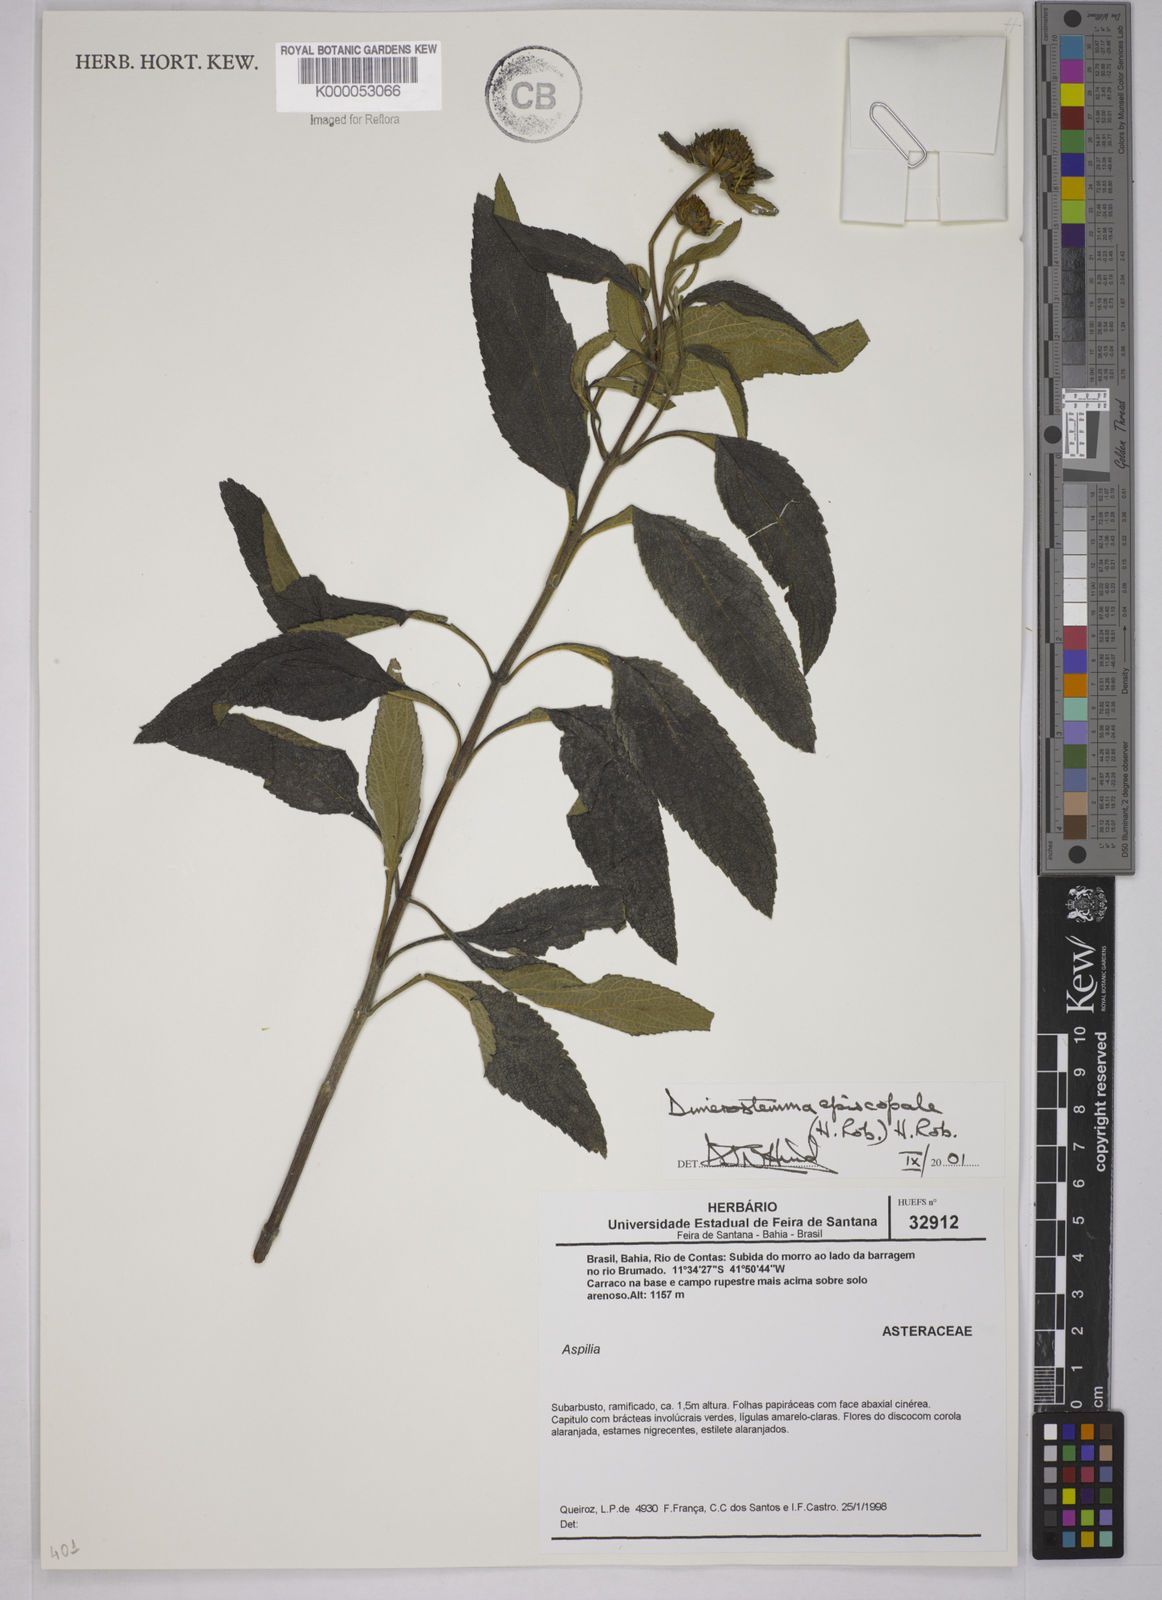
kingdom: Plantae
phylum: Tracheophyta
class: Magnoliopsida
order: Asterales
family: Asteraceae
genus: Dimerostemma
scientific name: Dimerostemma episcopale
